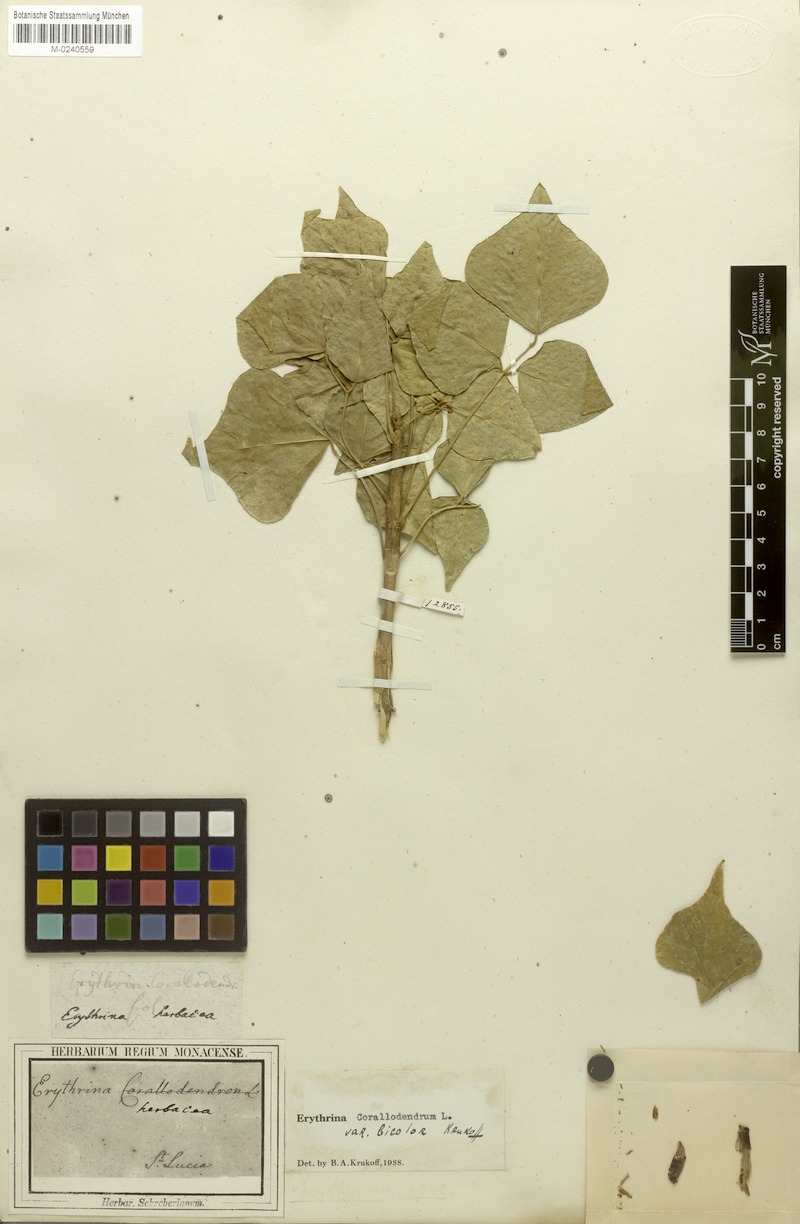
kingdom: Plantae
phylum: Tracheophyta
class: Magnoliopsida
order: Fabales
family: Fabaceae
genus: Erythrina
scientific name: Erythrina corallodendron
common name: Coraltree
